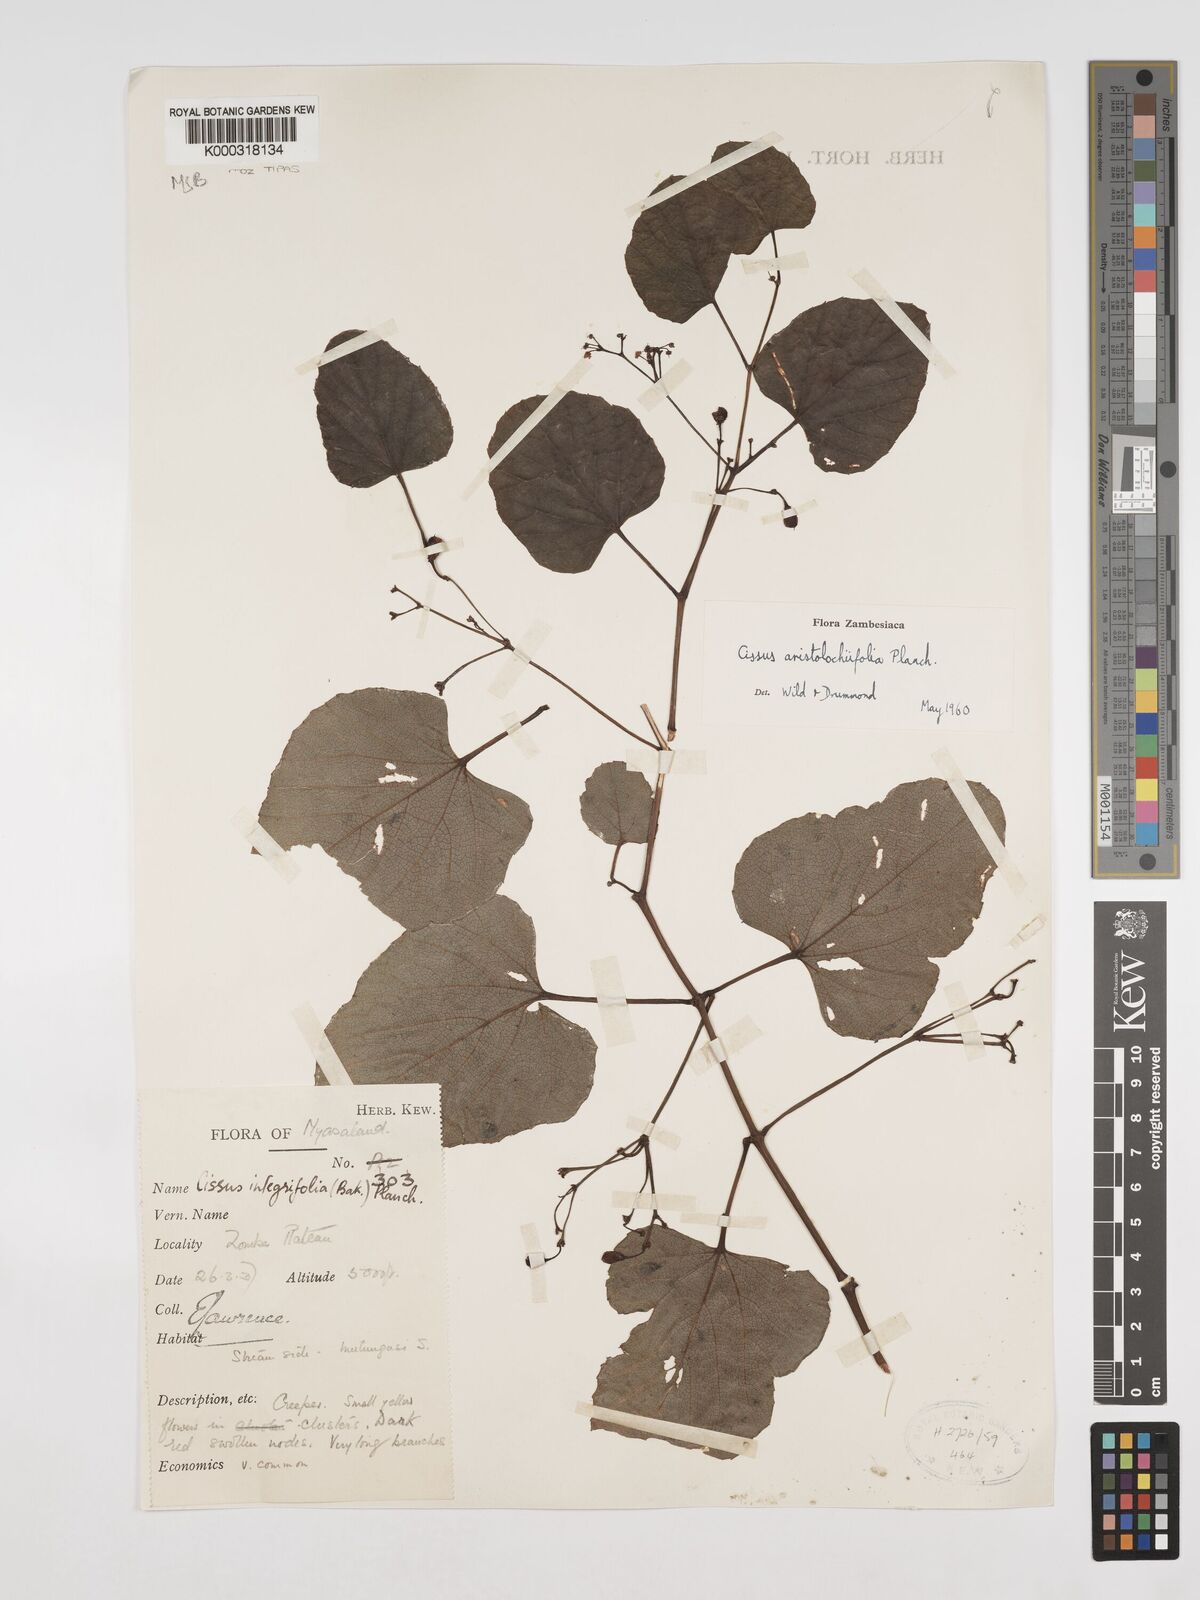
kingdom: Plantae
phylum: Tracheophyta
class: Magnoliopsida
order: Vitales
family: Vitaceae
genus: Cissus
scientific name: Cissus aristolochiifolia
